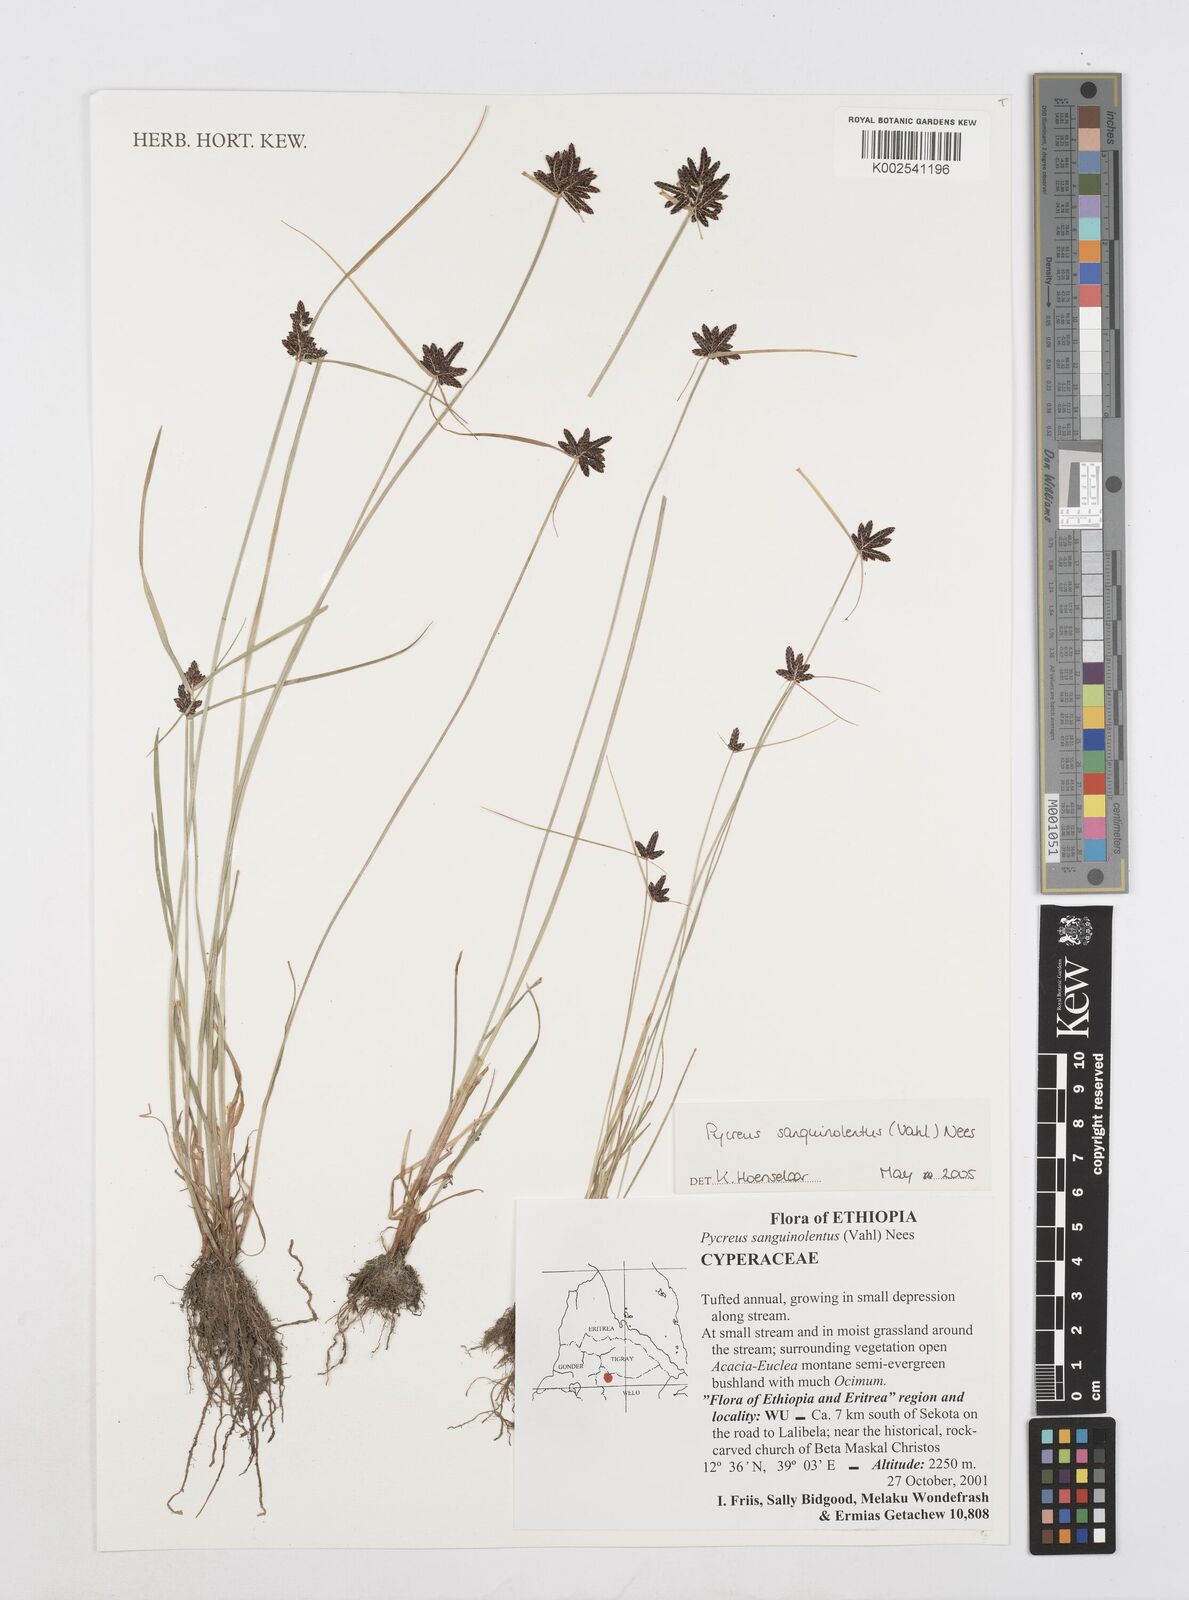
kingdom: Plantae
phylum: Tracheophyta
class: Liliopsida
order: Poales
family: Cyperaceae
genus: Cyperus
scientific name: Cyperus sanguinolentus
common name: Purpleglume flatsedge
